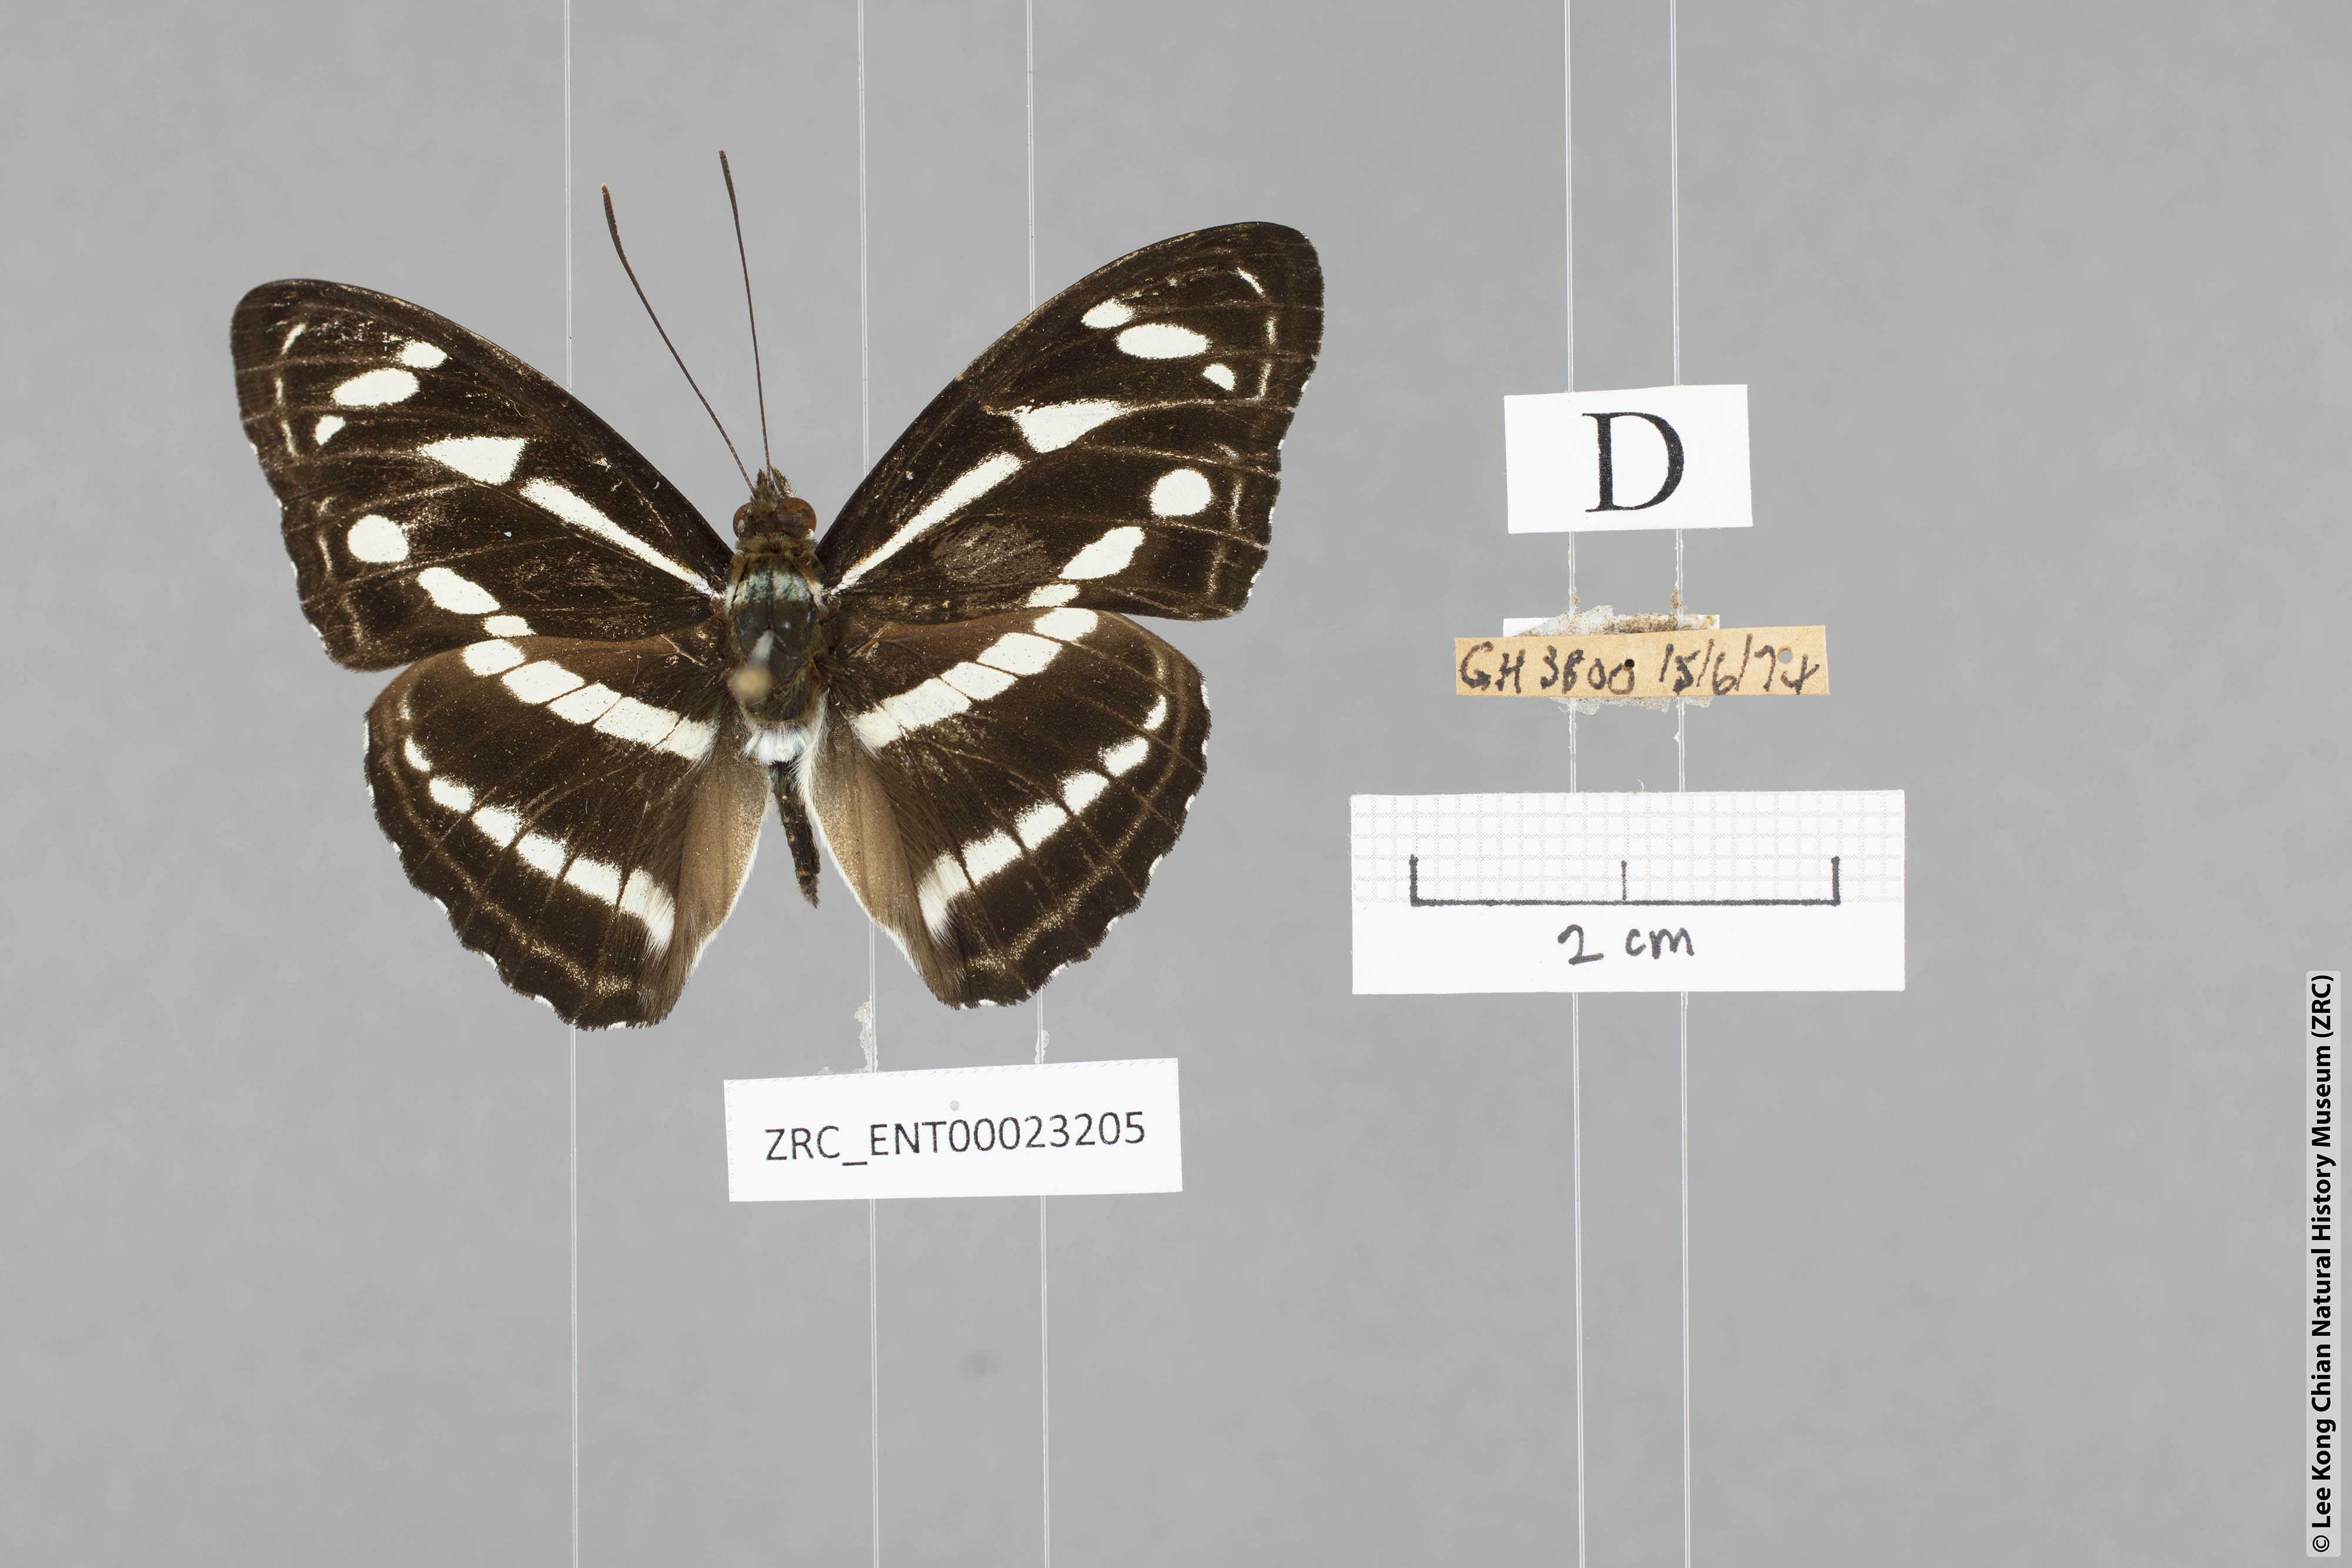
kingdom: Animalia
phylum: Arthropoda
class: Insecta
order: Lepidoptera
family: Nymphalidae
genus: Parathyma
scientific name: Parathyma kanwa
